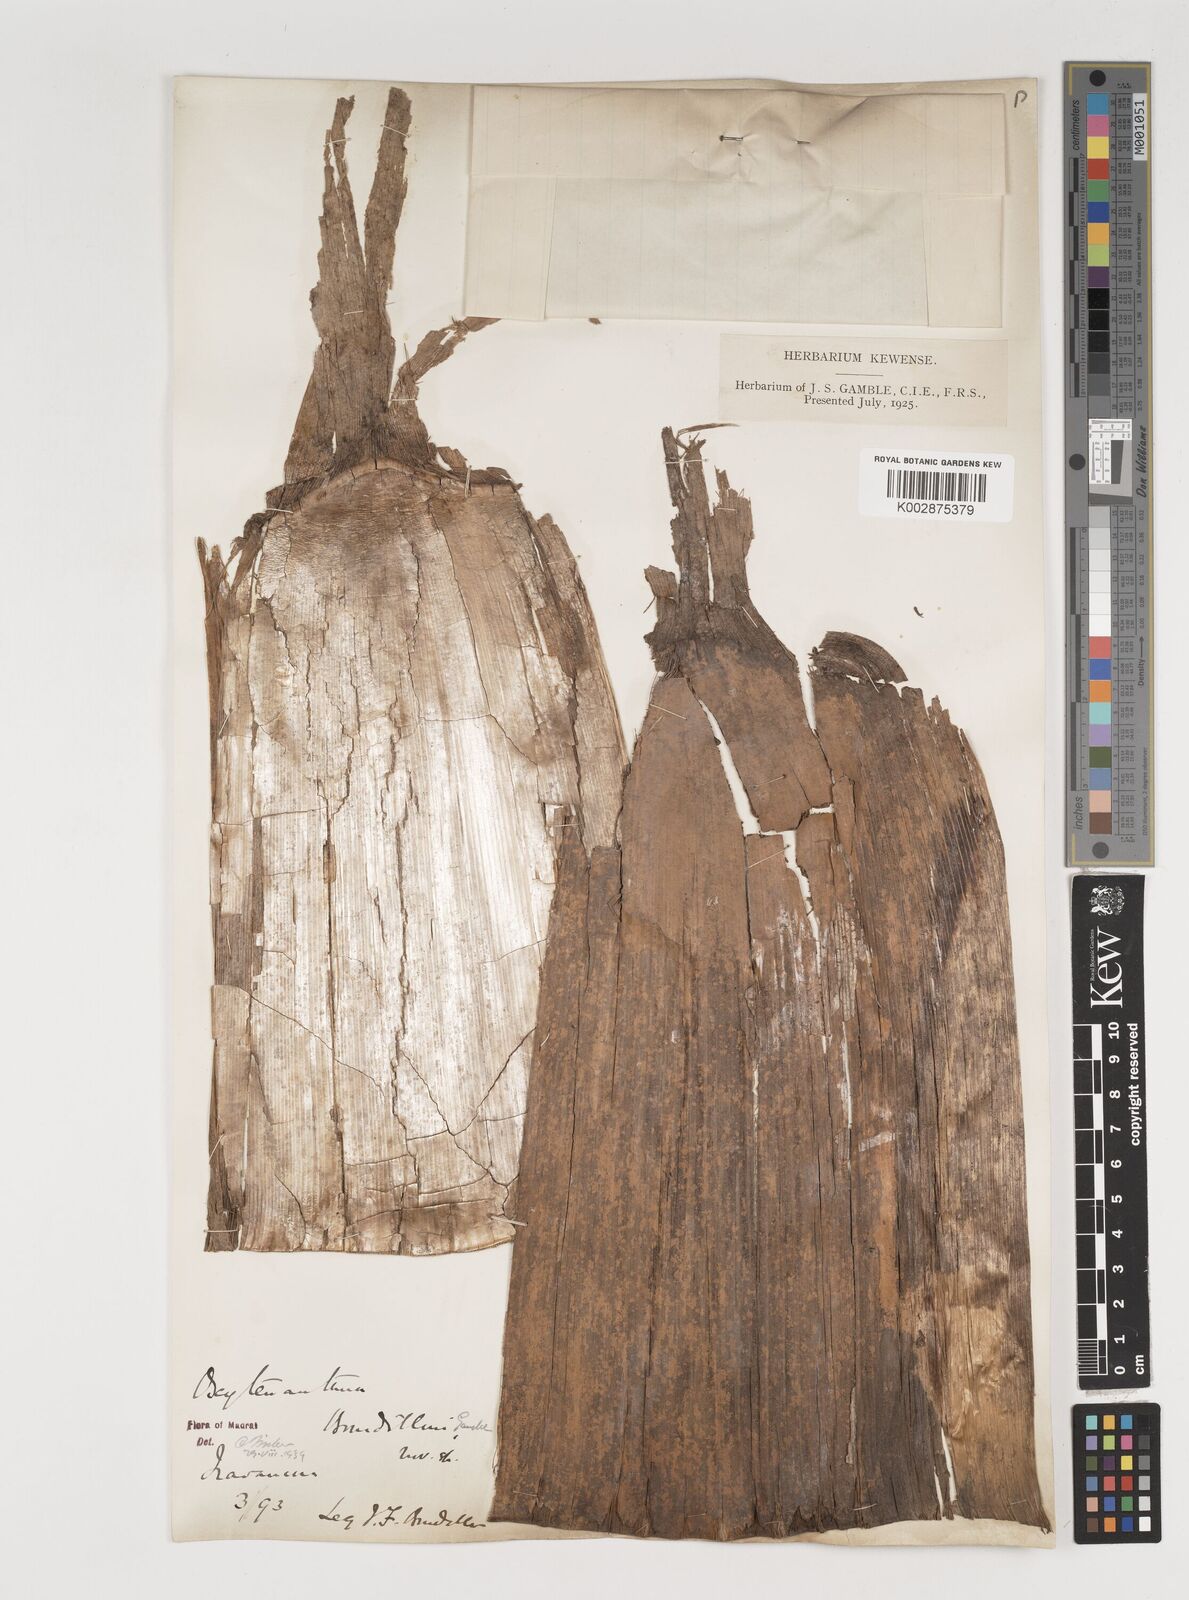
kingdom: Plantae
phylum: Tracheophyta
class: Liliopsida
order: Poales
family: Poaceae
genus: Dendrocalamus
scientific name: Dendrocalamus
